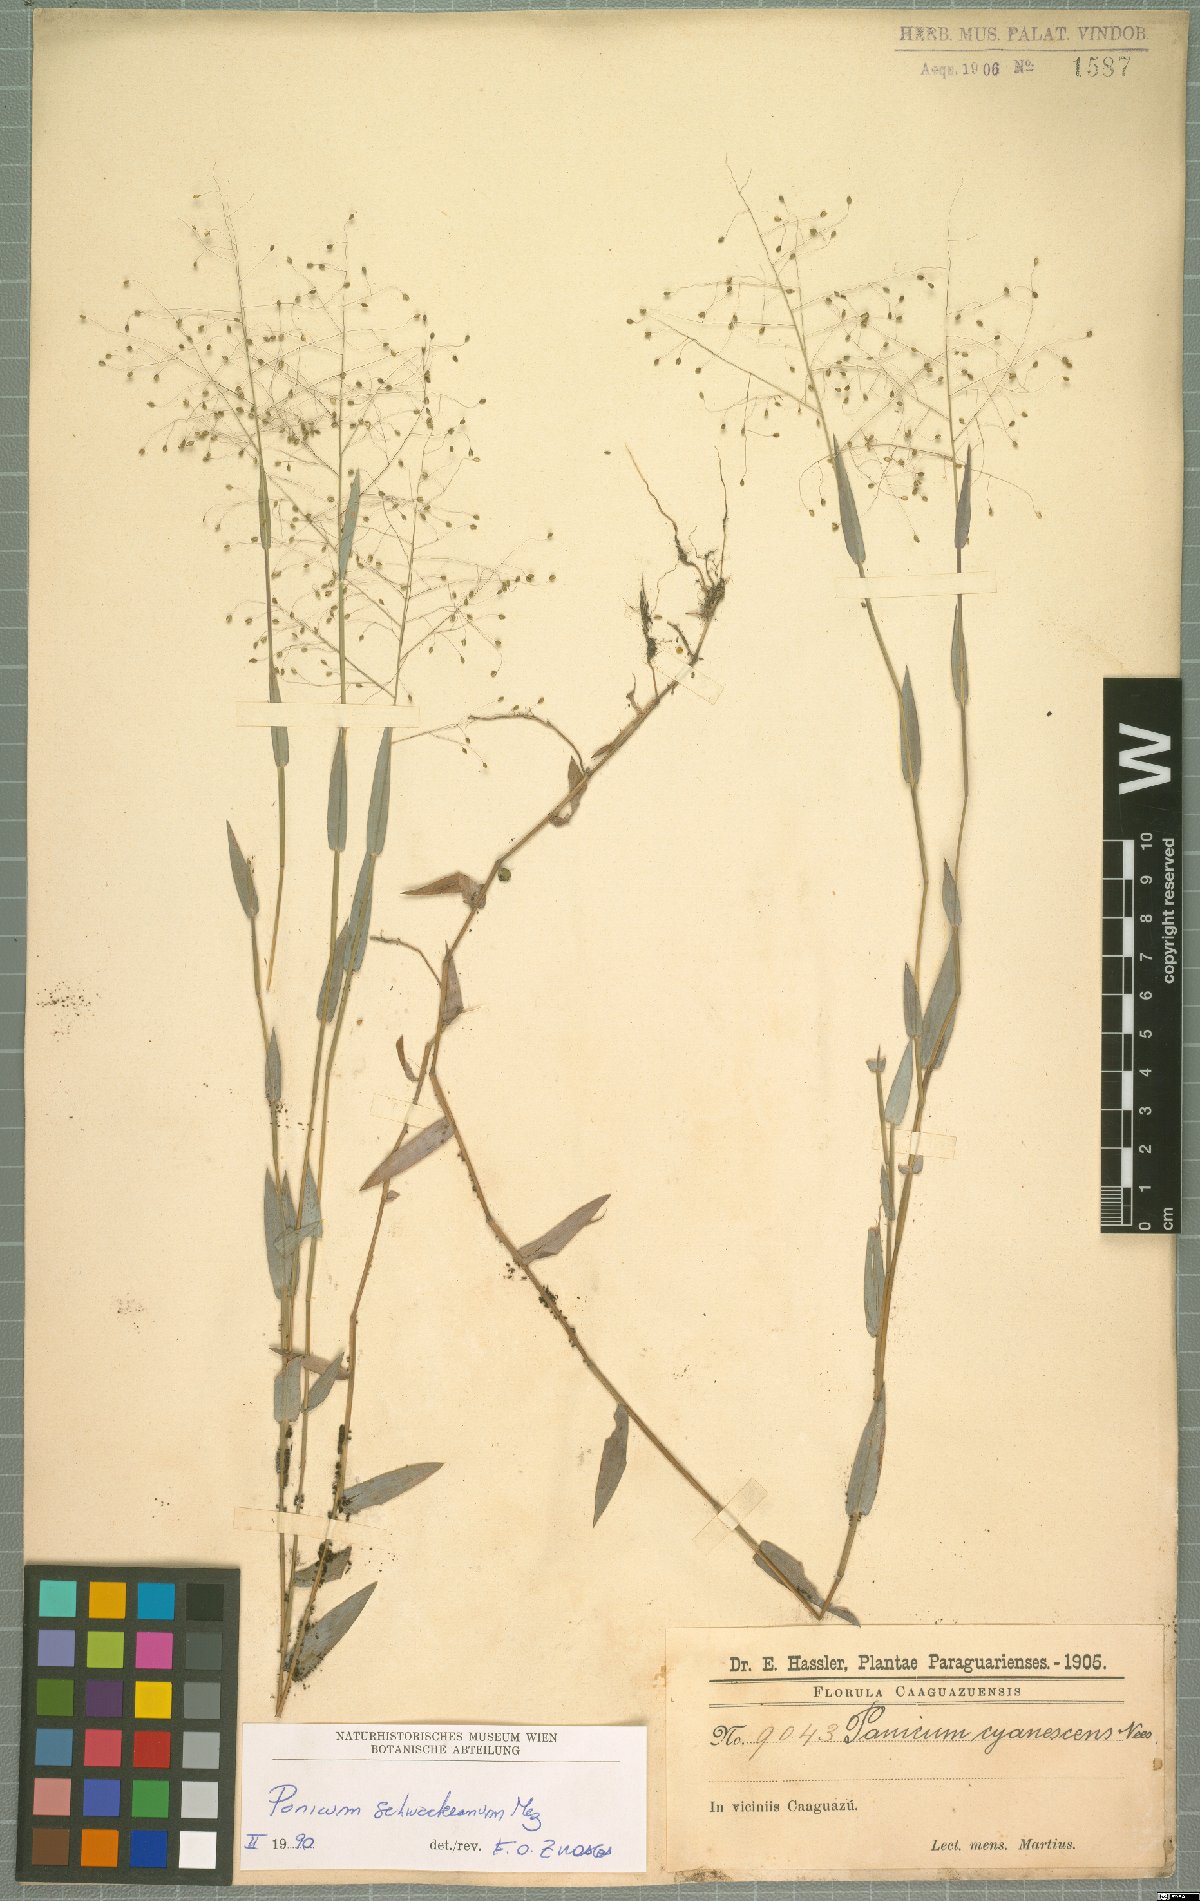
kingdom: Plantae
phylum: Tracheophyta
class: Liliopsida
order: Poales
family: Poaceae
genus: Trichanthecium
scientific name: Trichanthecium schwackeanum
